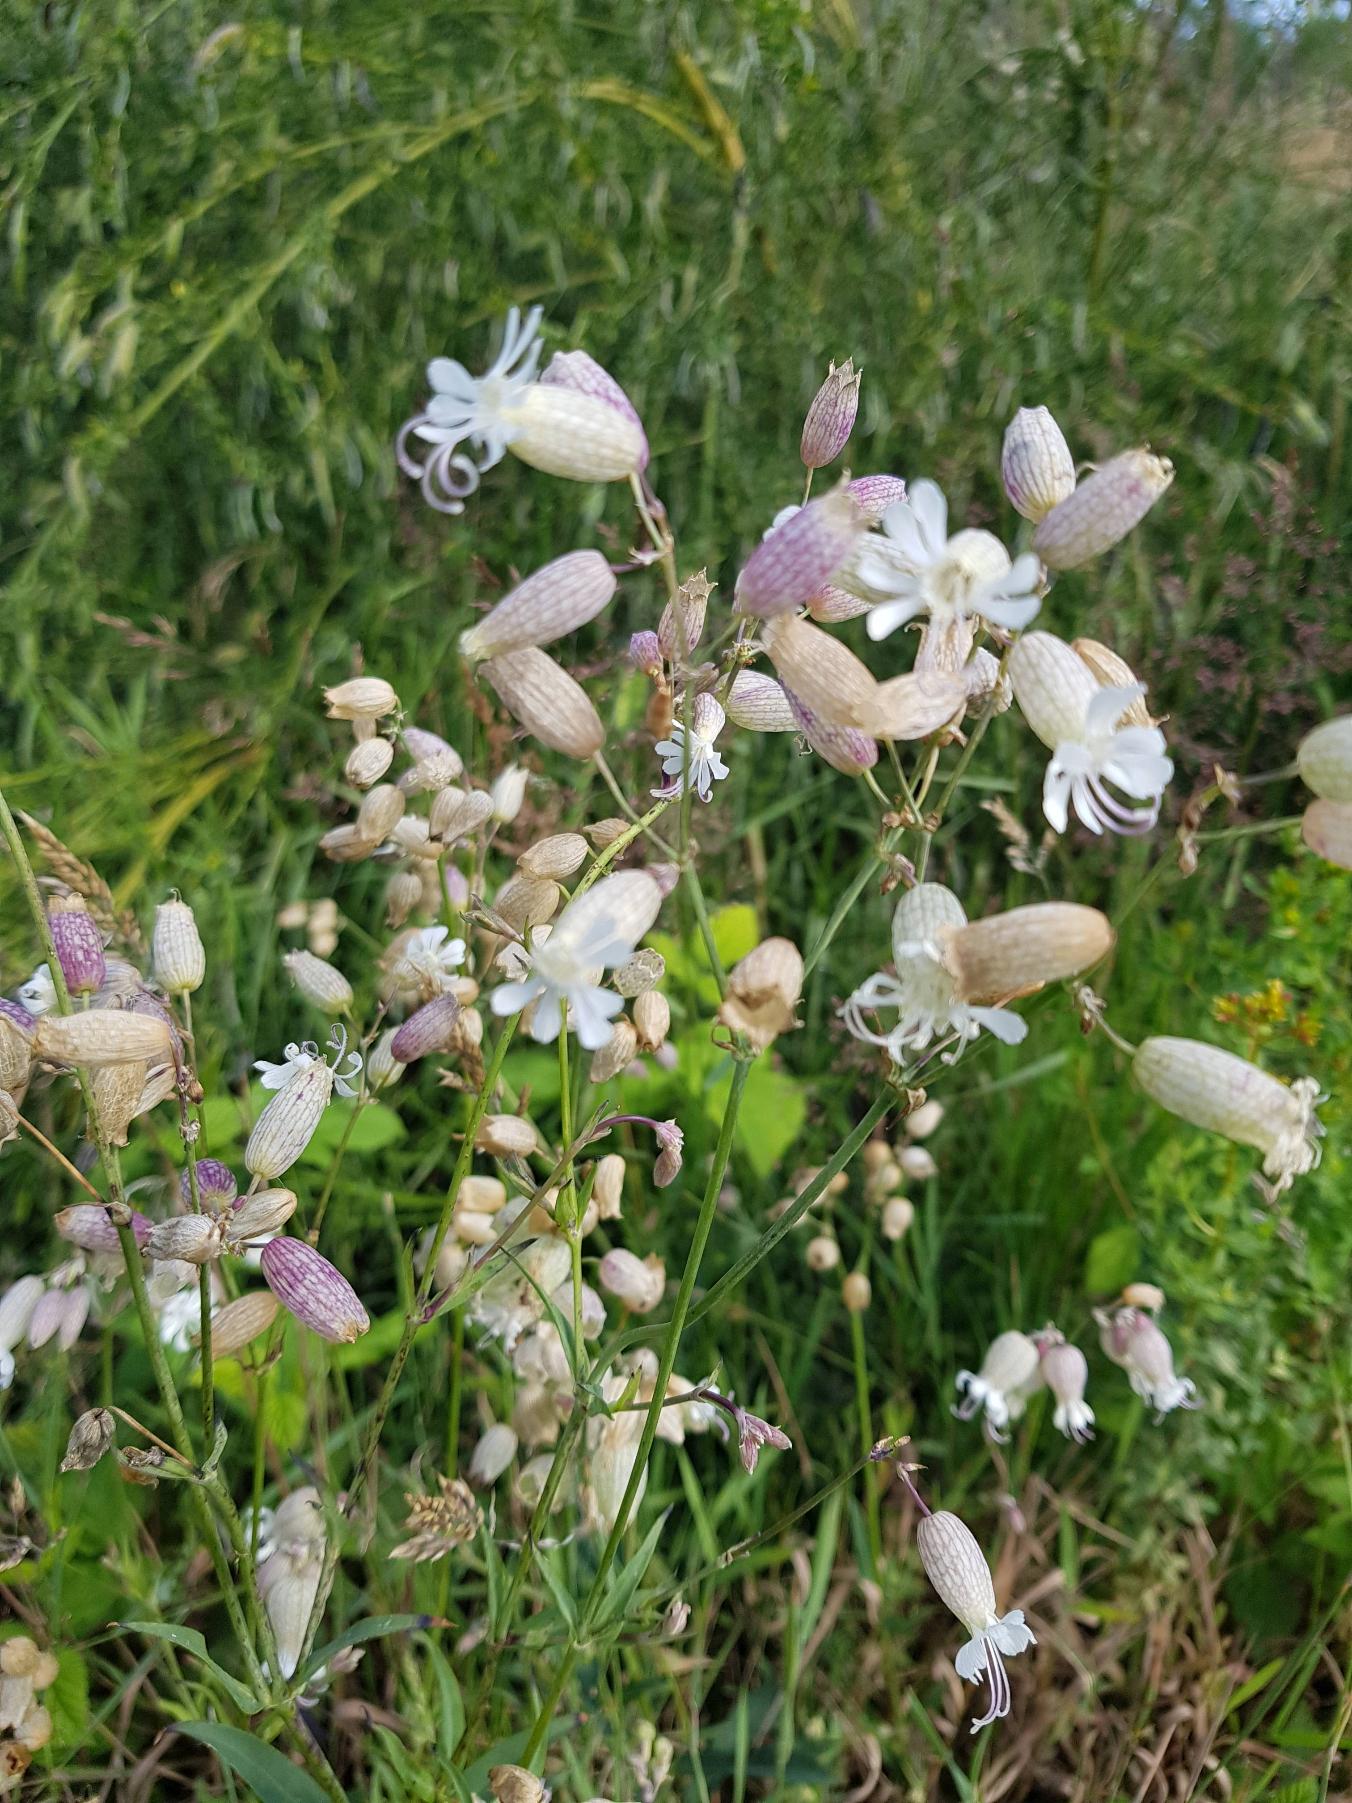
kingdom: Plantae
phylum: Tracheophyta
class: Magnoliopsida
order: Caryophyllales
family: Caryophyllaceae
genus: Silene
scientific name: Silene vulgaris
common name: Blæresmælde
